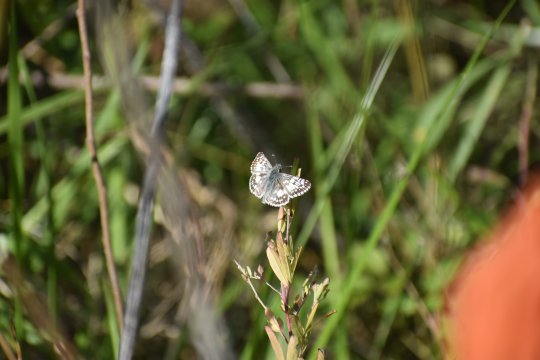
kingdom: Animalia
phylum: Arthropoda
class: Insecta
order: Lepidoptera
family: Hesperiidae
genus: Pyrgus
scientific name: Pyrgus
